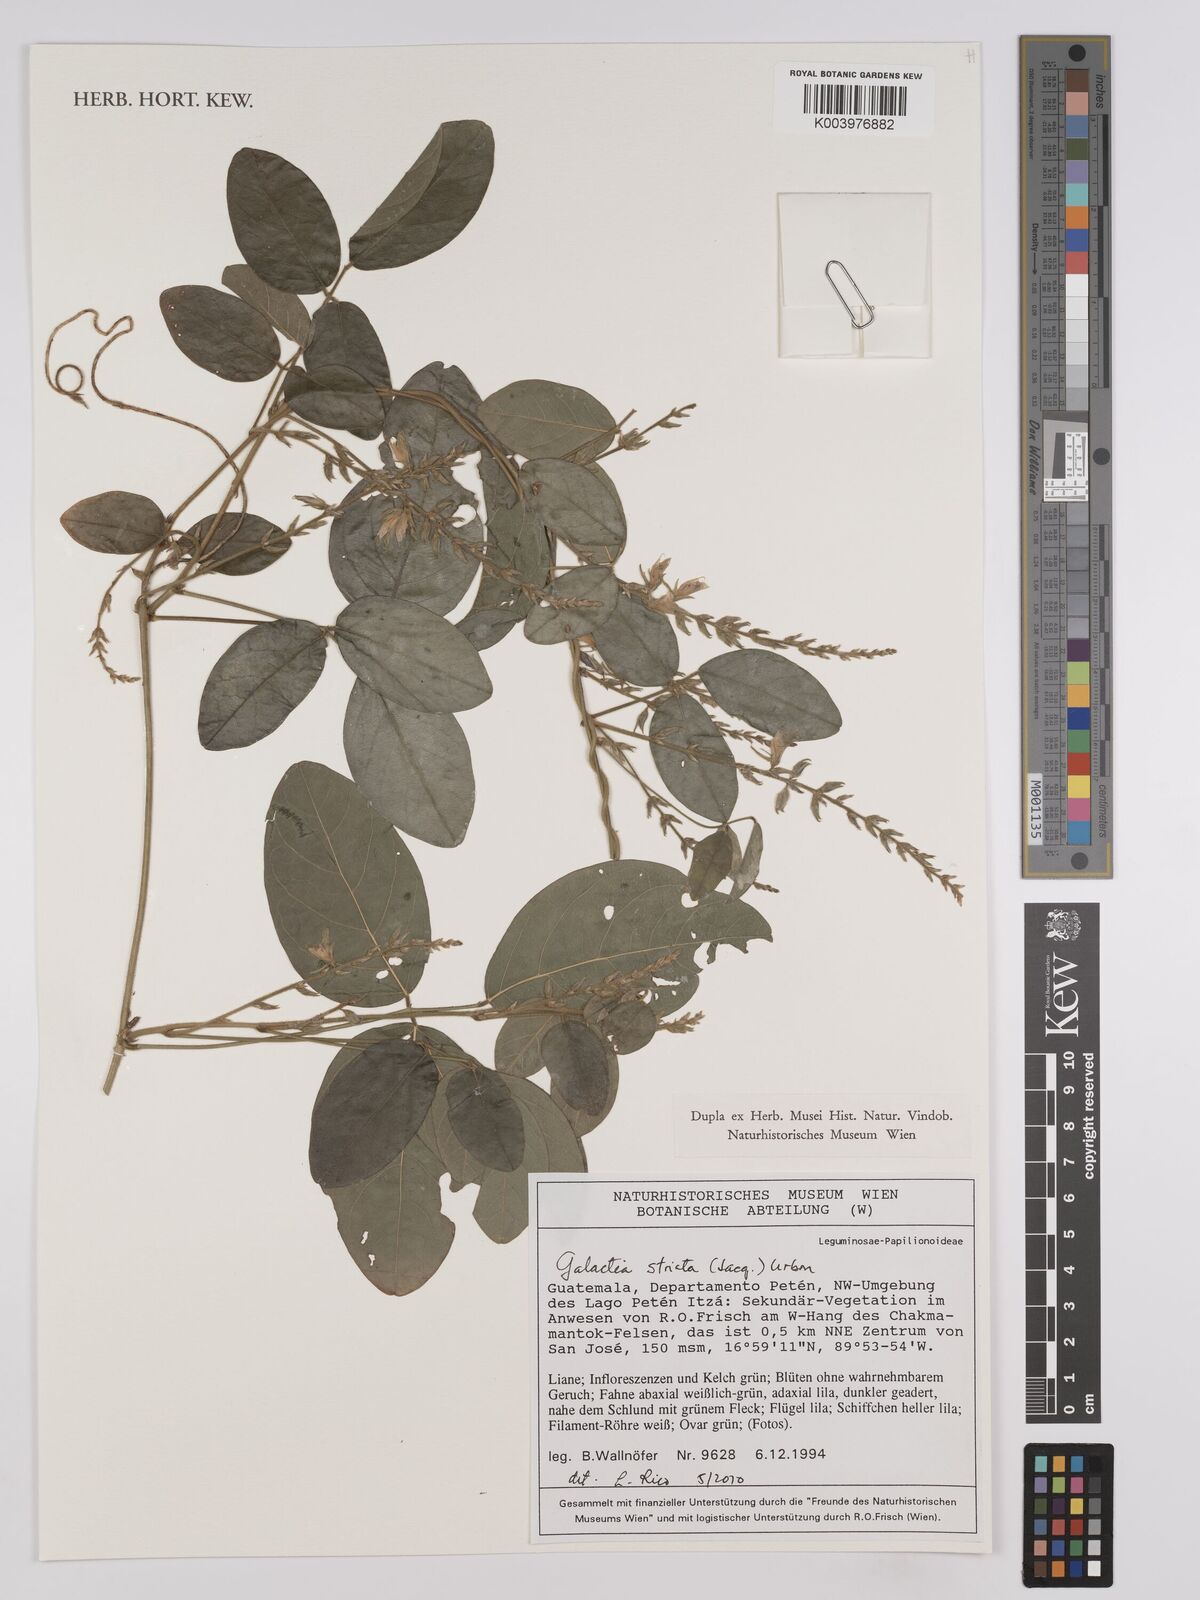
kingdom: Plantae
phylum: Tracheophyta
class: Magnoliopsida
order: Fabales
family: Fabaceae
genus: Galactia
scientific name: Galactia striata
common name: Florida hammock milkpea
